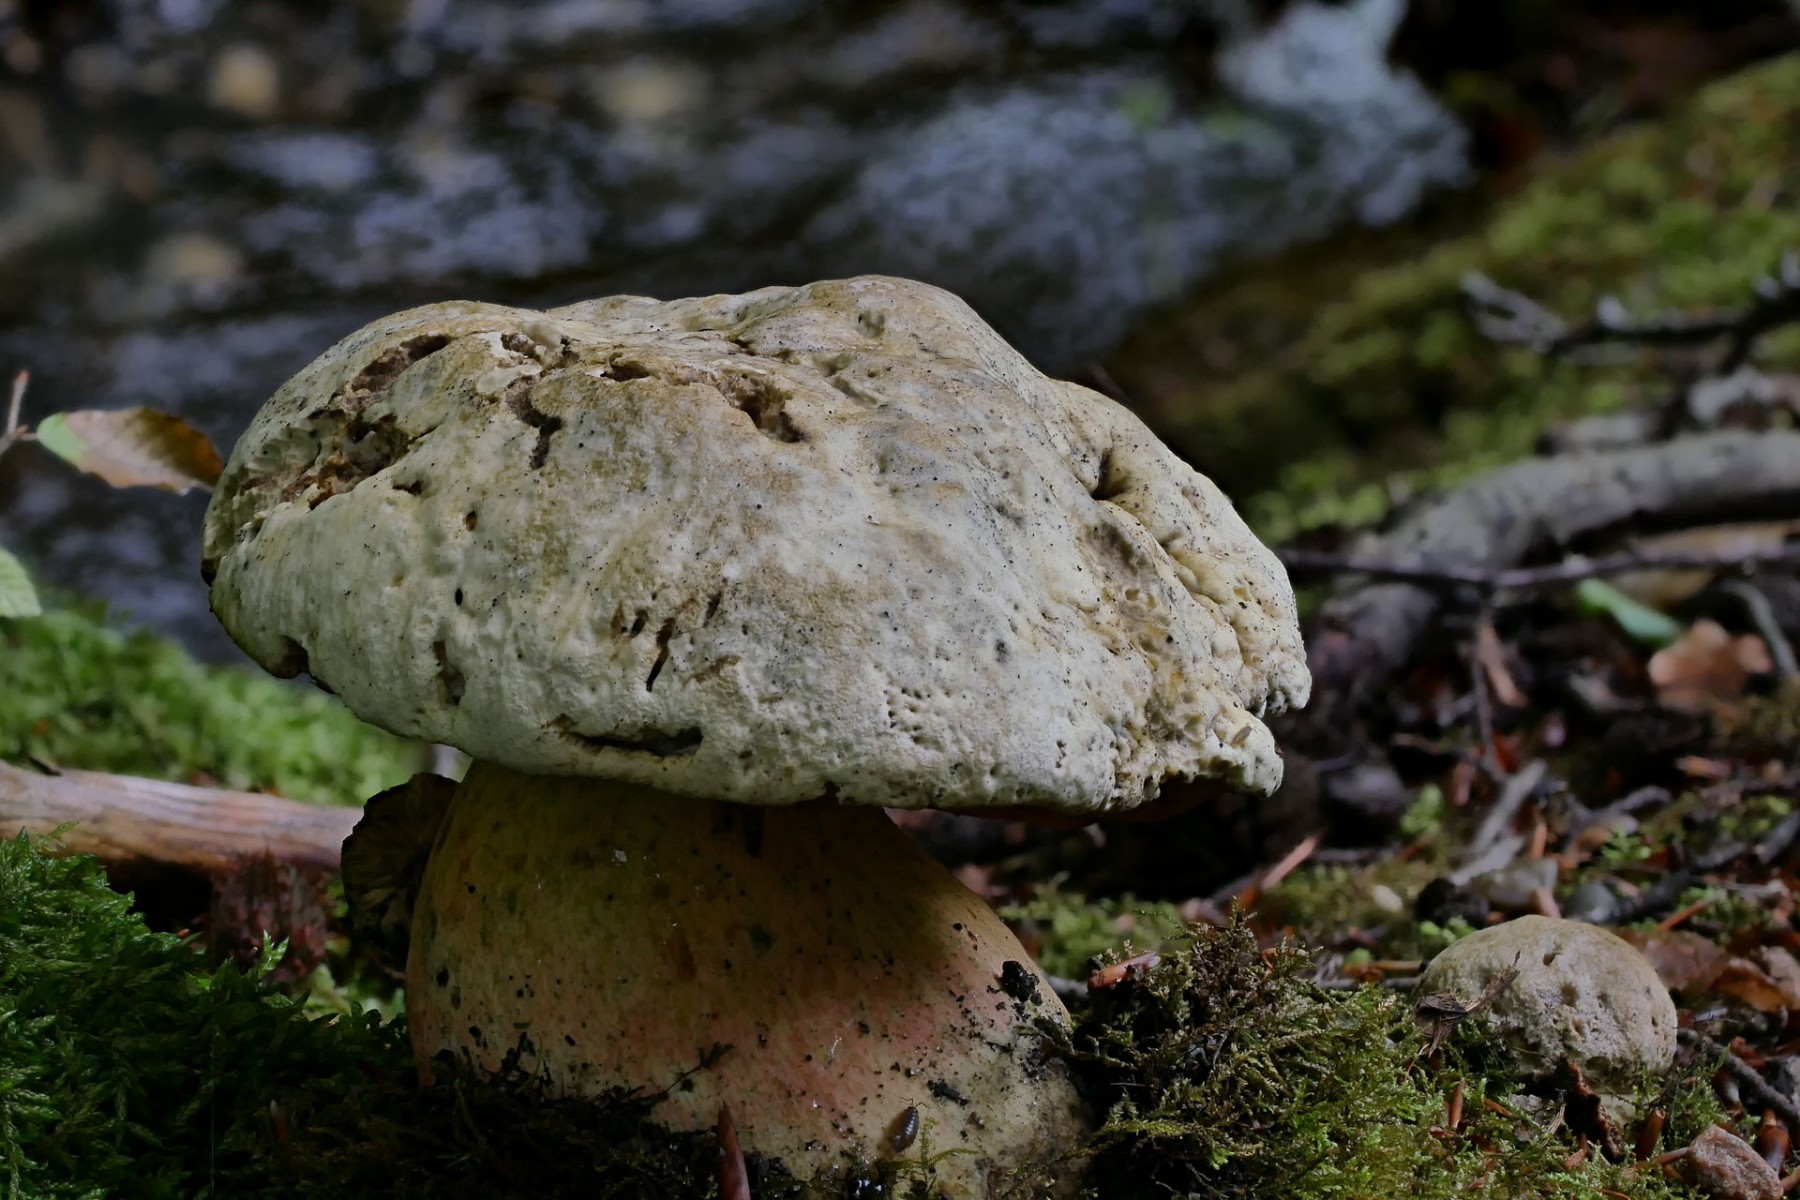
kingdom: Fungi
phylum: Basidiomycota
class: Agaricomycetes
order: Boletales
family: Boletaceae
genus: Rubroboletus
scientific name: Rubroboletus satanas
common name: Satans rørhat
